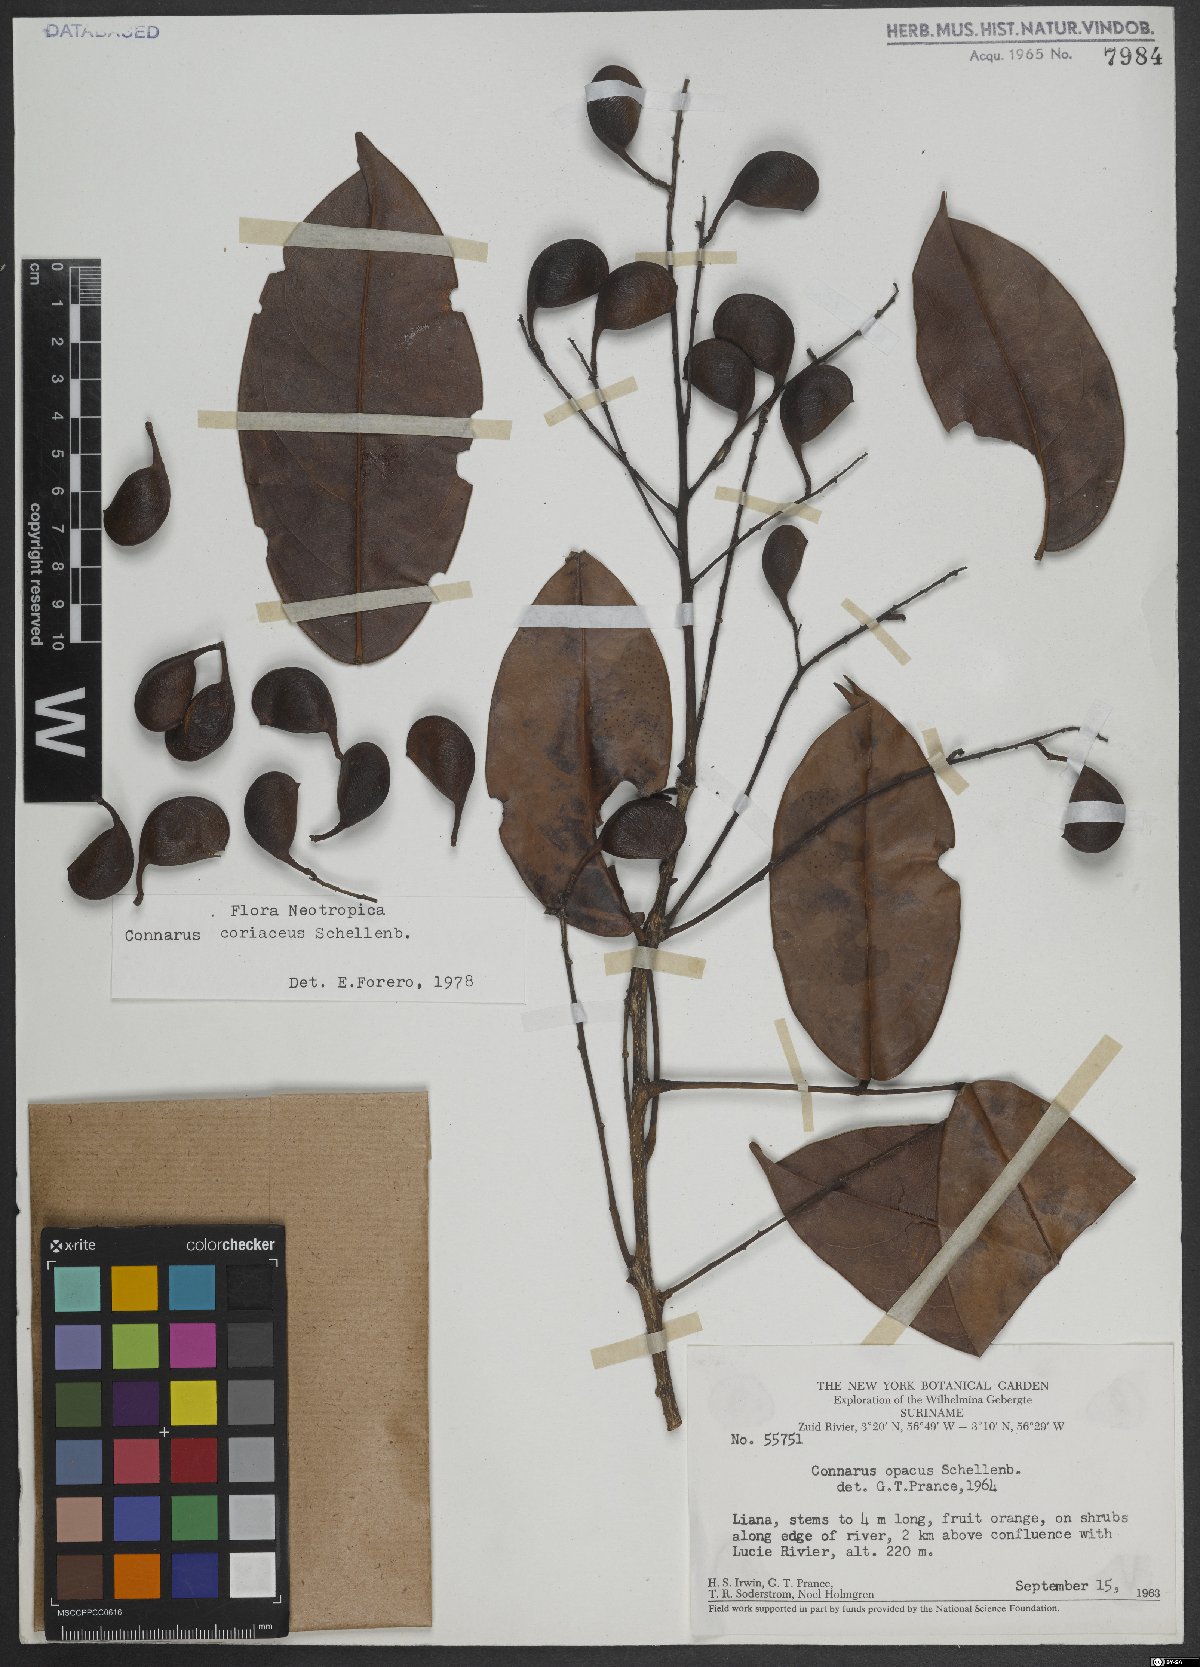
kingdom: Plantae
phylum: Tracheophyta
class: Magnoliopsida
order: Oxalidales
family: Connaraceae
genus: Connarus
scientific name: Connarus coriaceus
